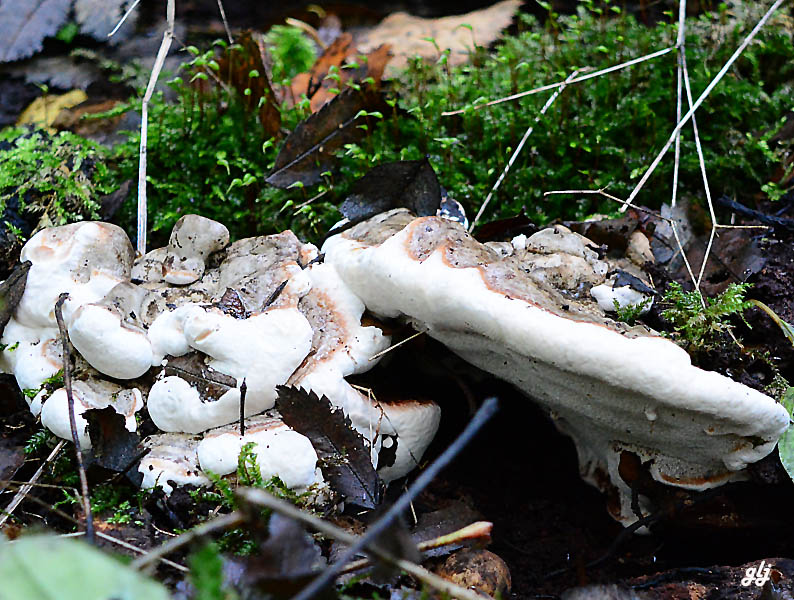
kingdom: Fungi
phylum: Basidiomycota
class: Agaricomycetes
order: Polyporales
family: Polyporaceae
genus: Ganoderma
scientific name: Ganoderma applanatum
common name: flad lakporesvamp
